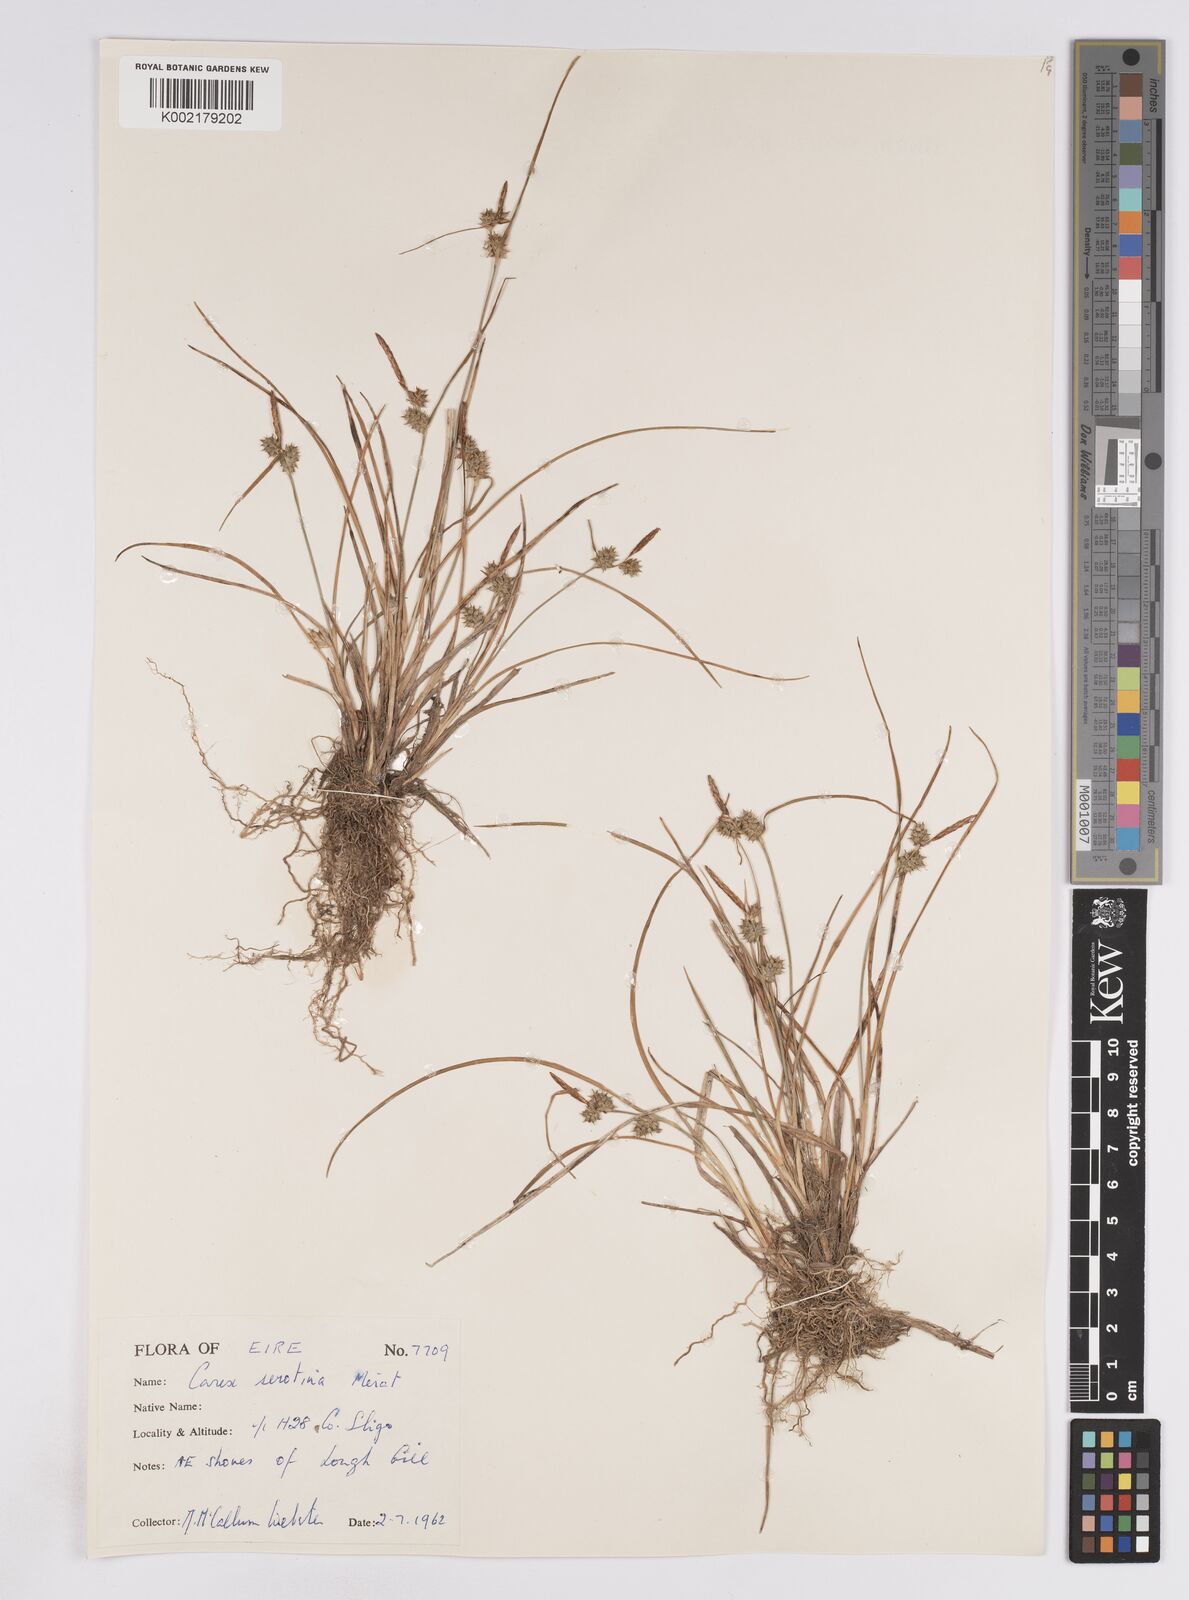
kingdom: Plantae
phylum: Tracheophyta
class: Liliopsida
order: Poales
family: Cyperaceae
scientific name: Cyperaceae
